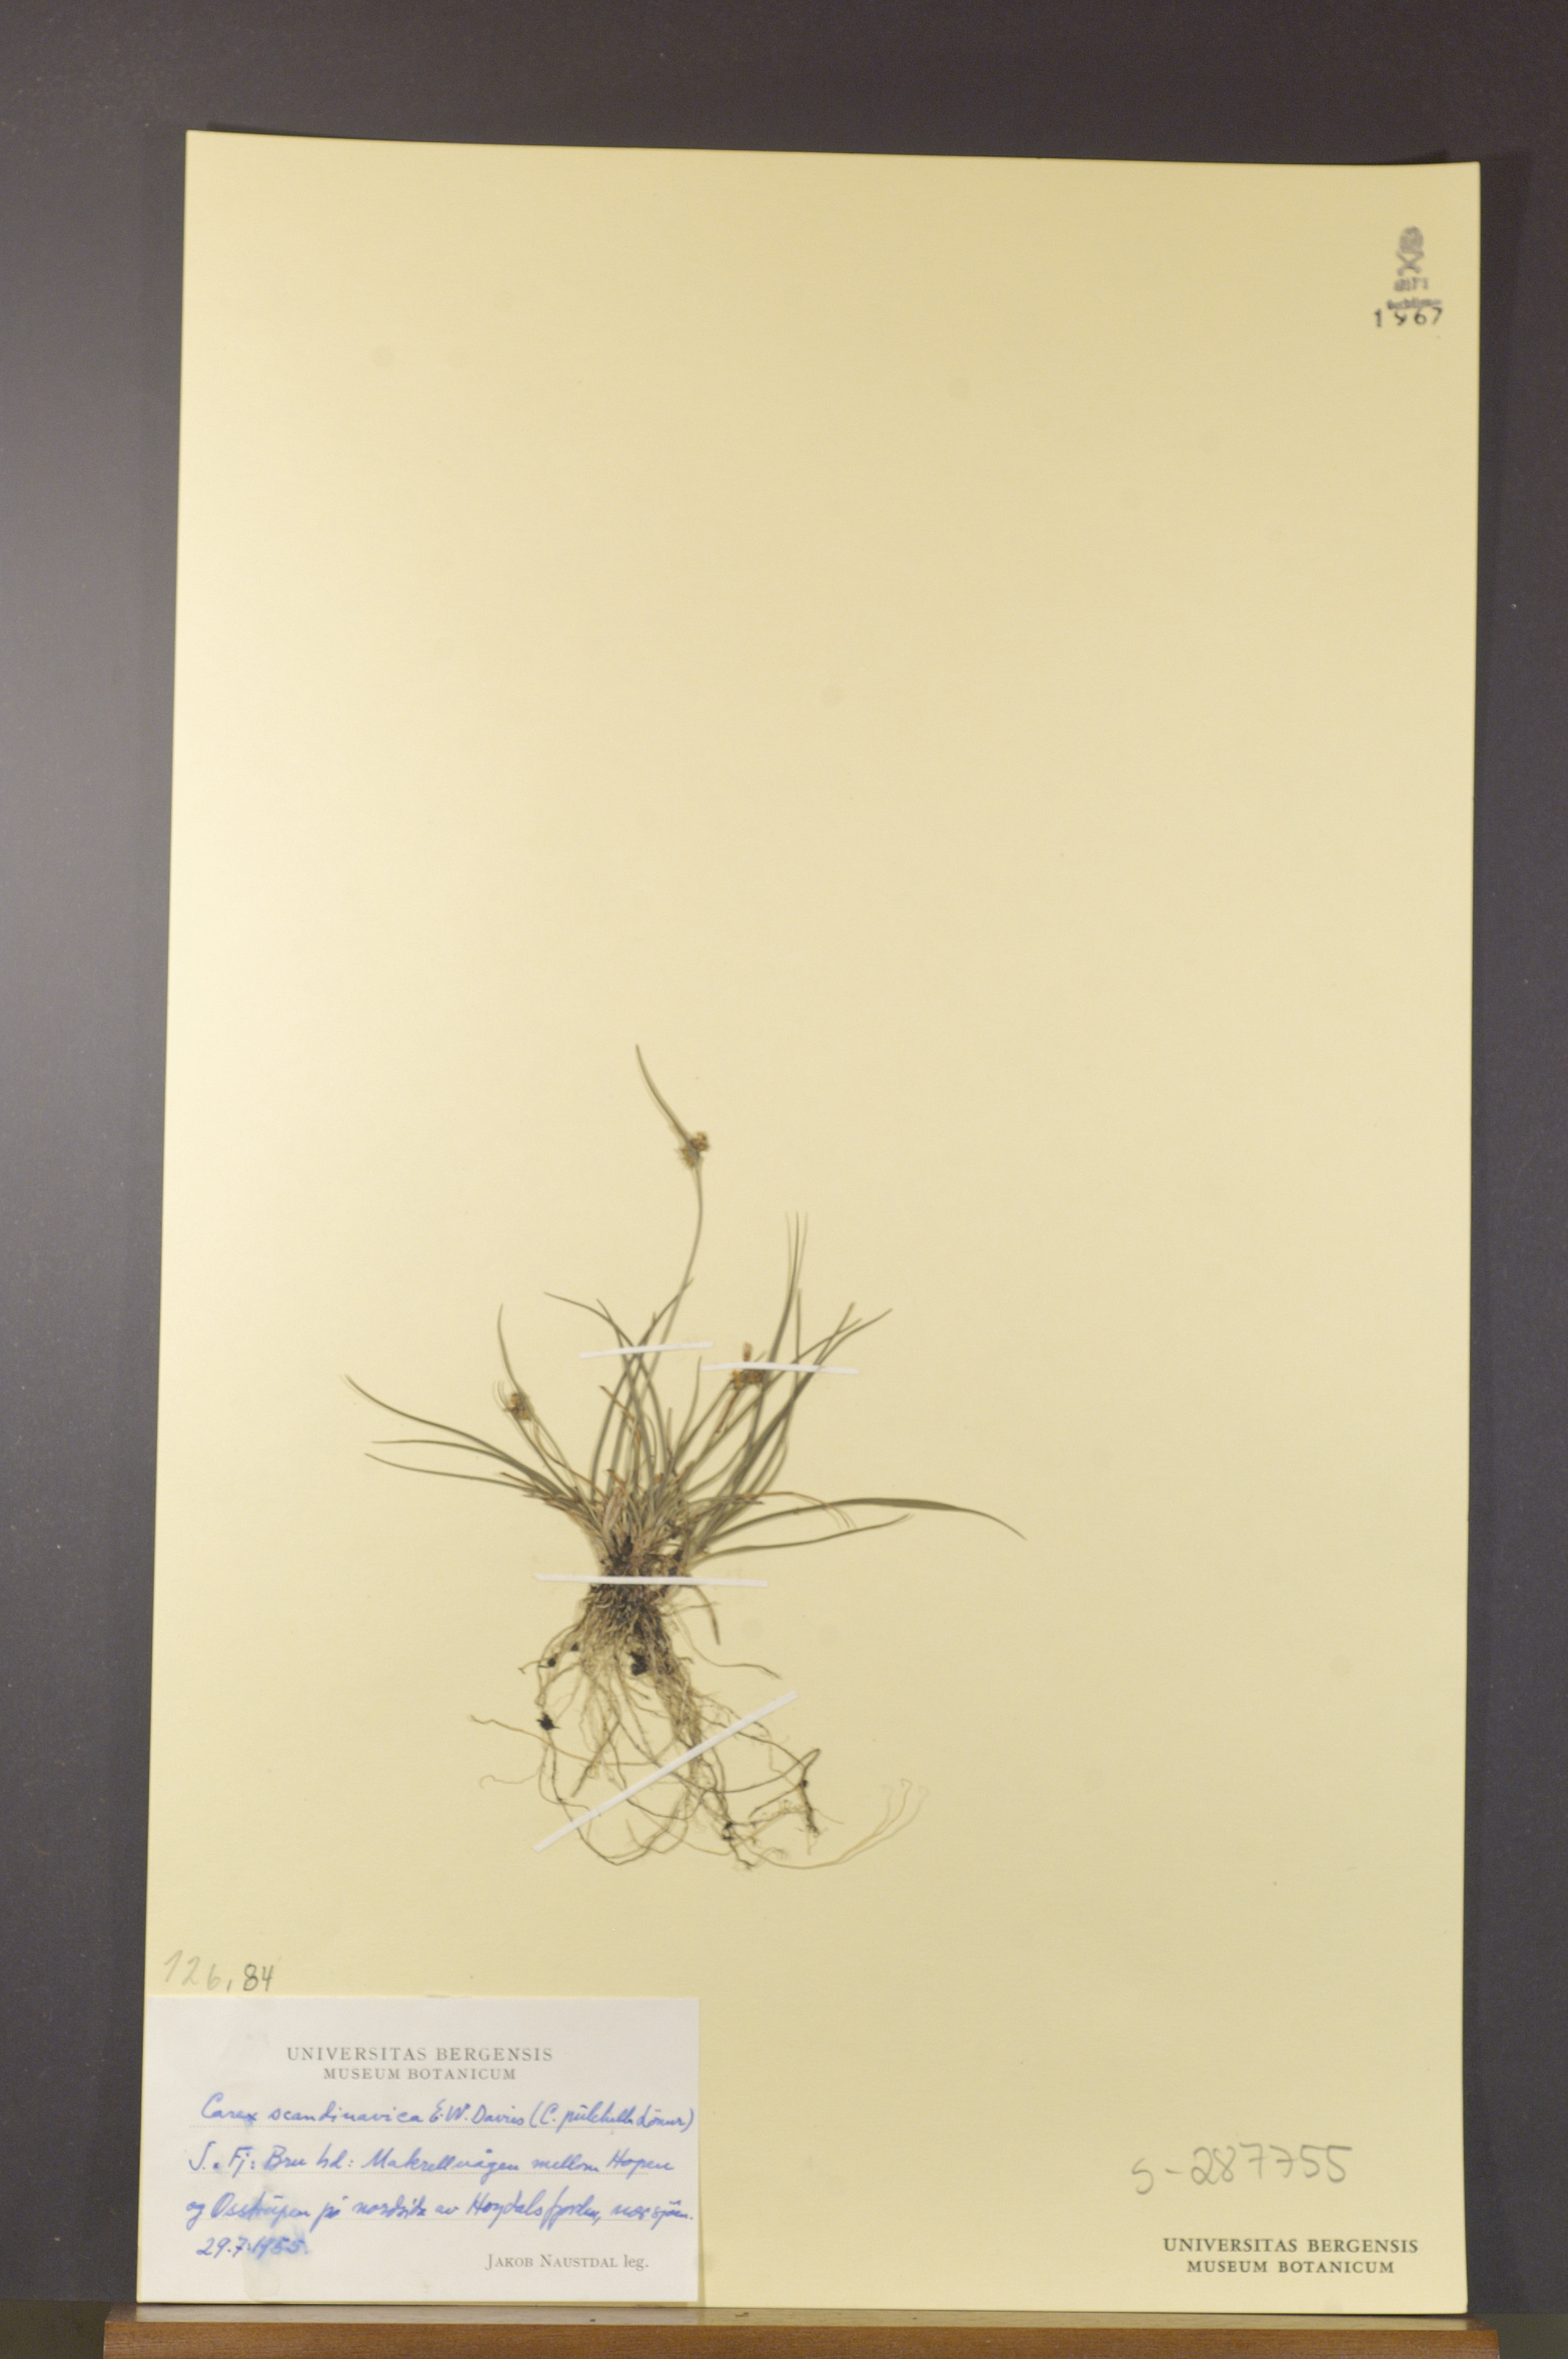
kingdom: Plantae
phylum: Tracheophyta
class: Liliopsida
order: Poales
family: Cyperaceae
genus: Carex
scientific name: Carex oederi
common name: Common & small-fruited yellow-sedge
